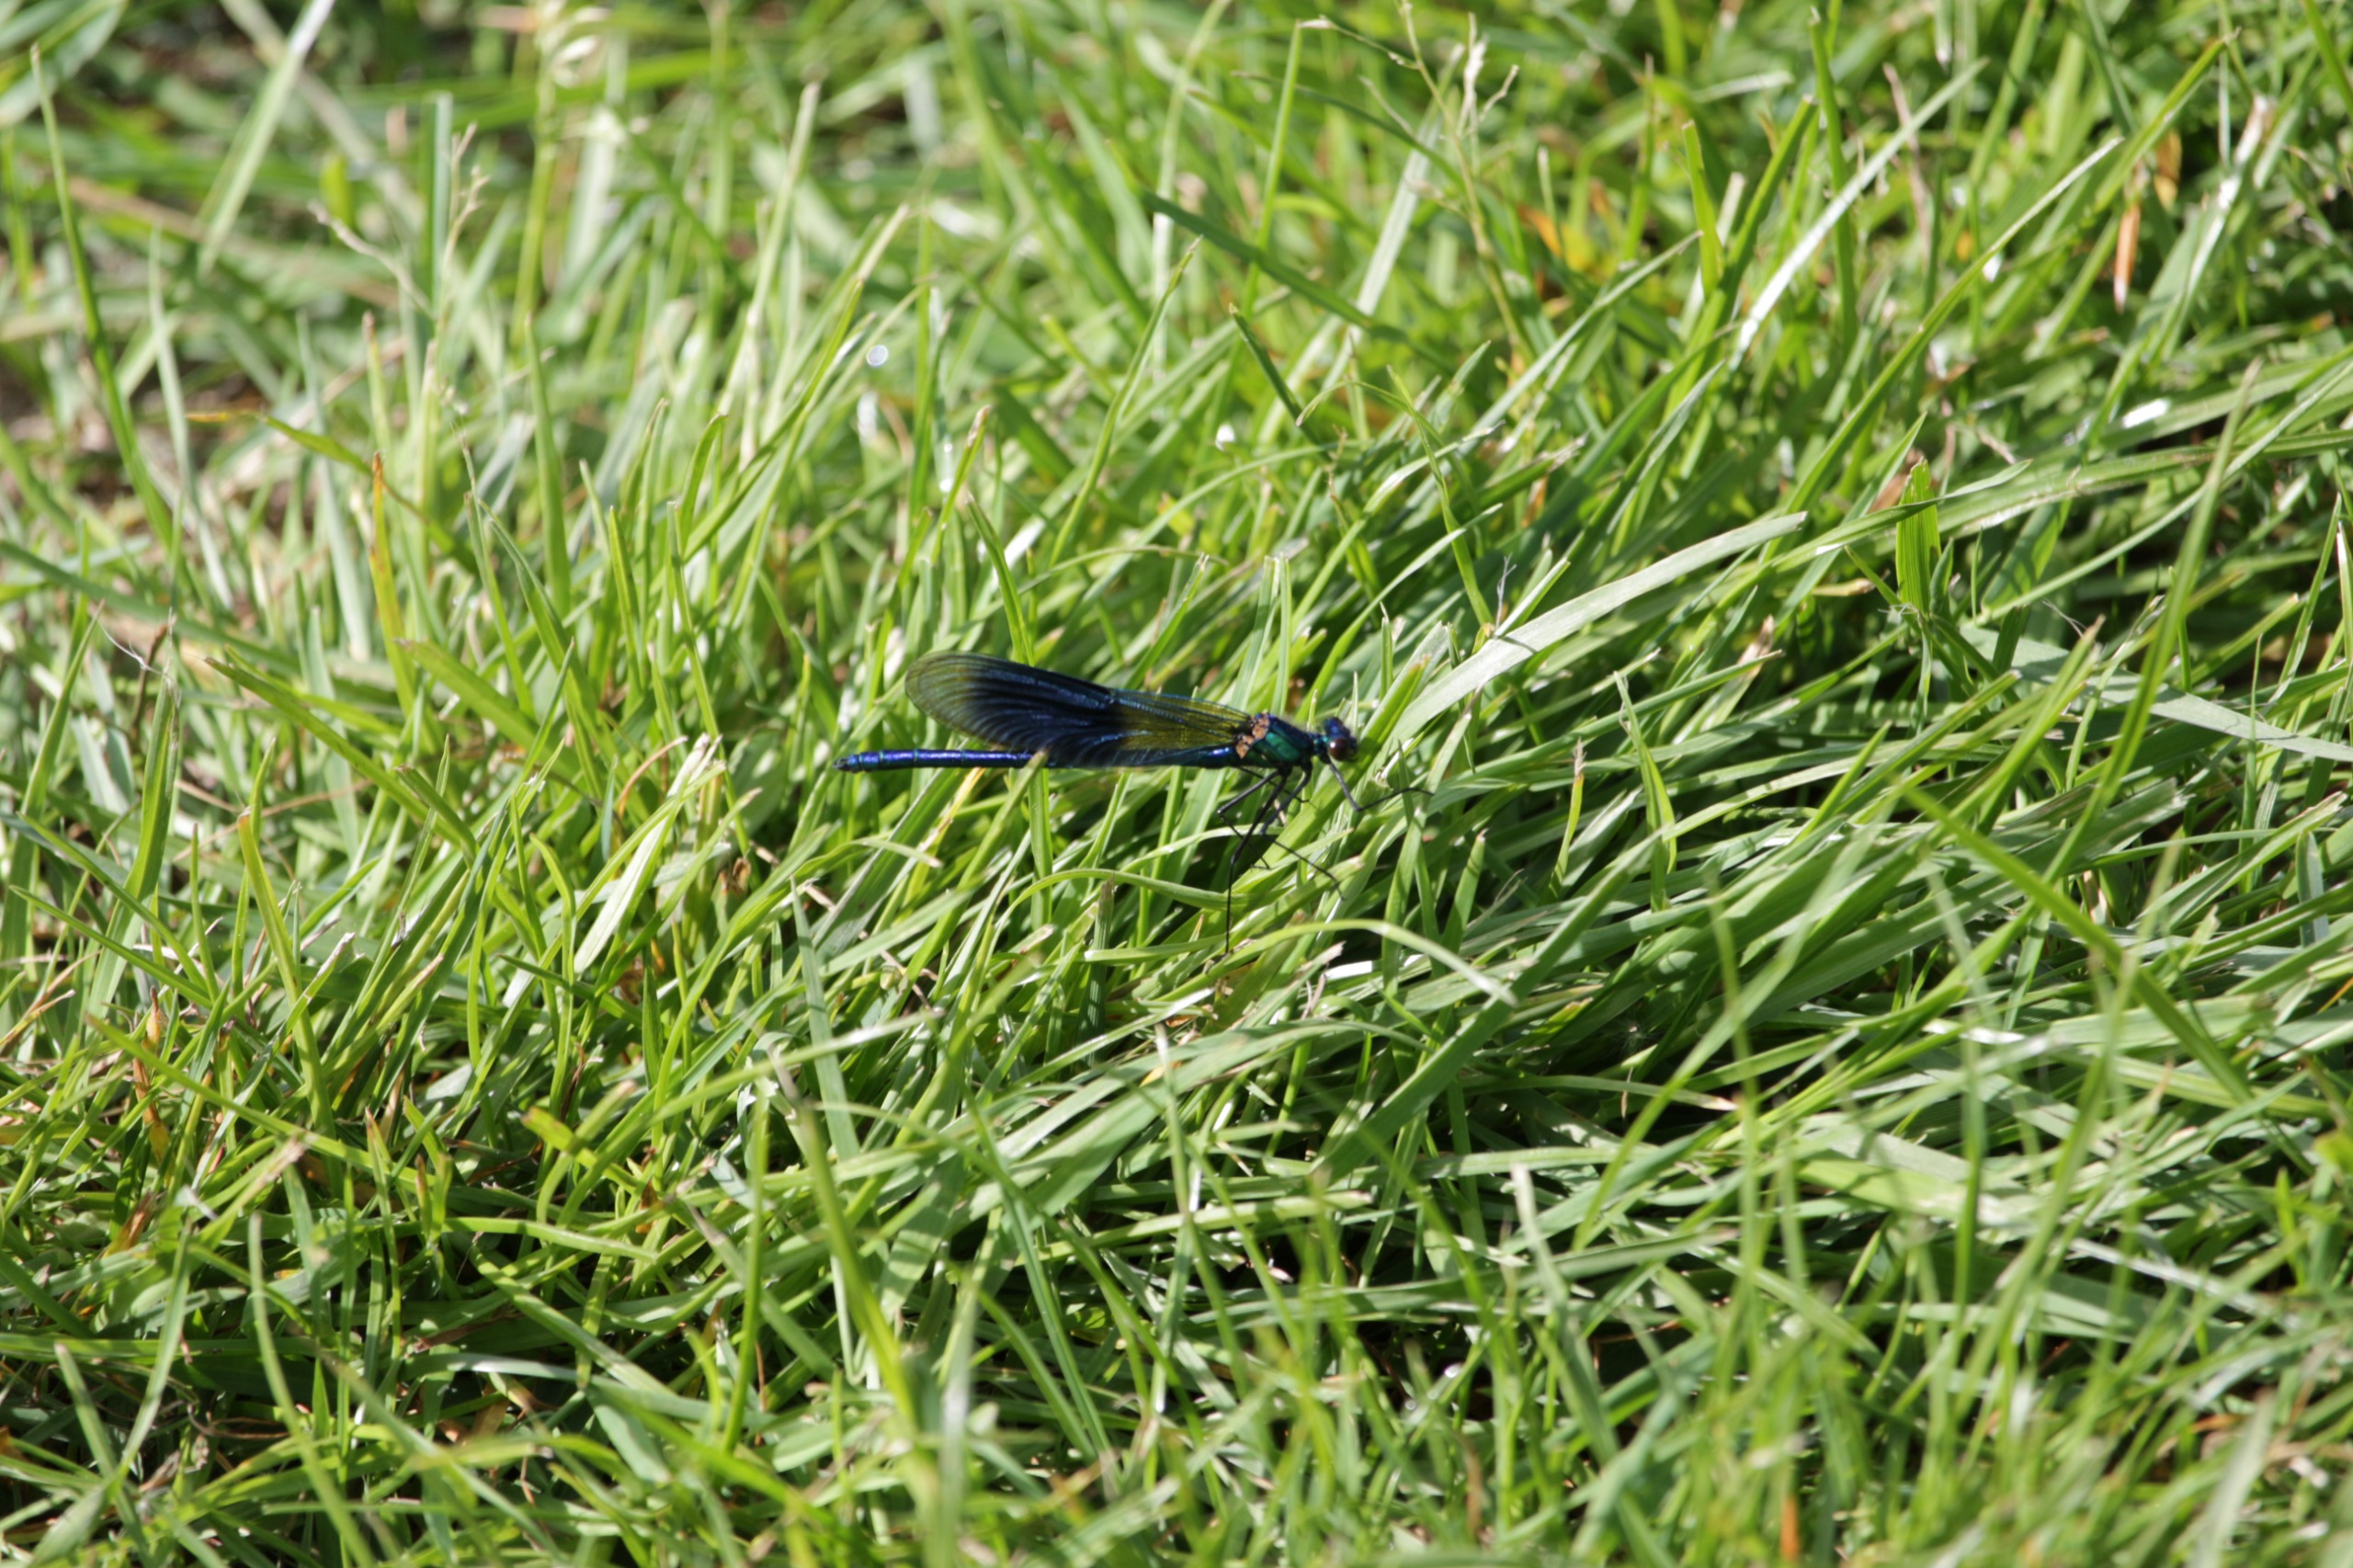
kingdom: Animalia
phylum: Arthropoda
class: Insecta
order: Odonata
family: Calopterygidae
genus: Calopteryx
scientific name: Calopteryx splendens
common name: Blåbåndet pragtvandnymfe
